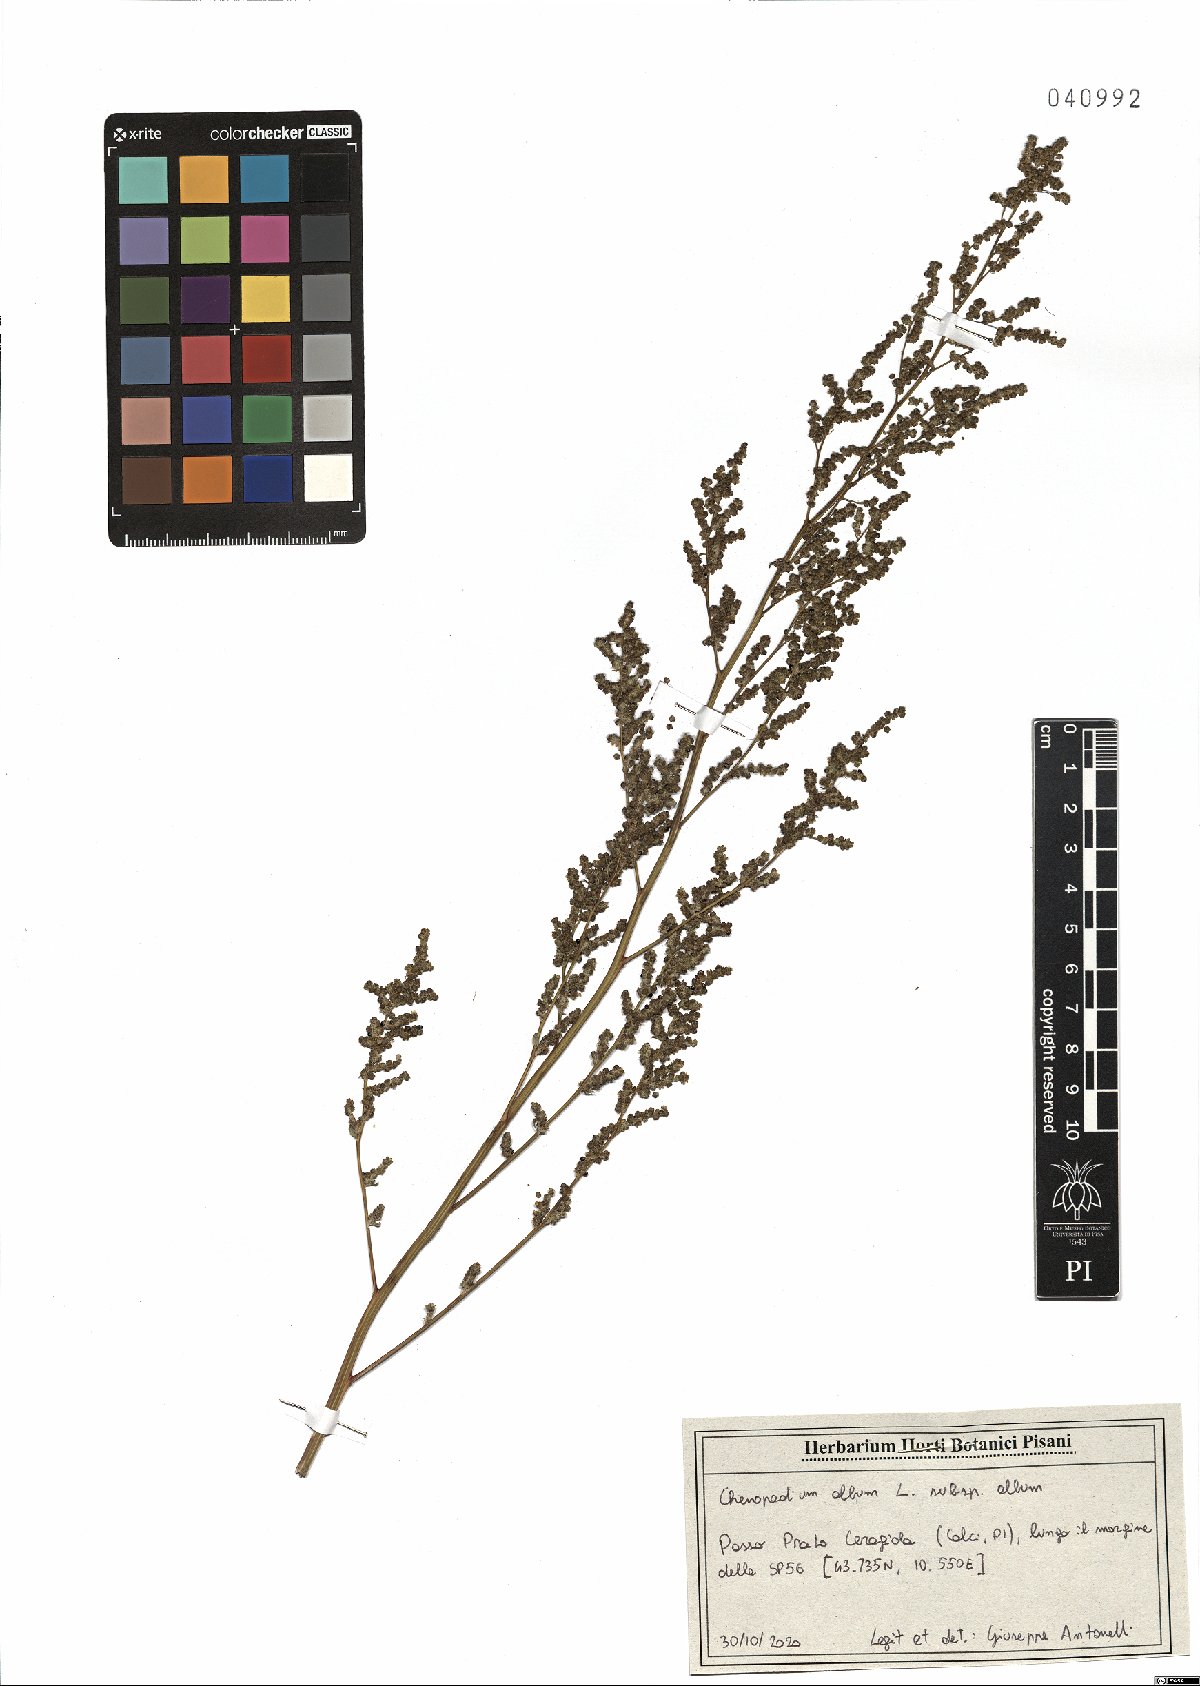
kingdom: Plantae
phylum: Tracheophyta
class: Magnoliopsida
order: Caryophyllales
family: Amaranthaceae
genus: Chenopodium
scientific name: Chenopodium album
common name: Fat-hen
